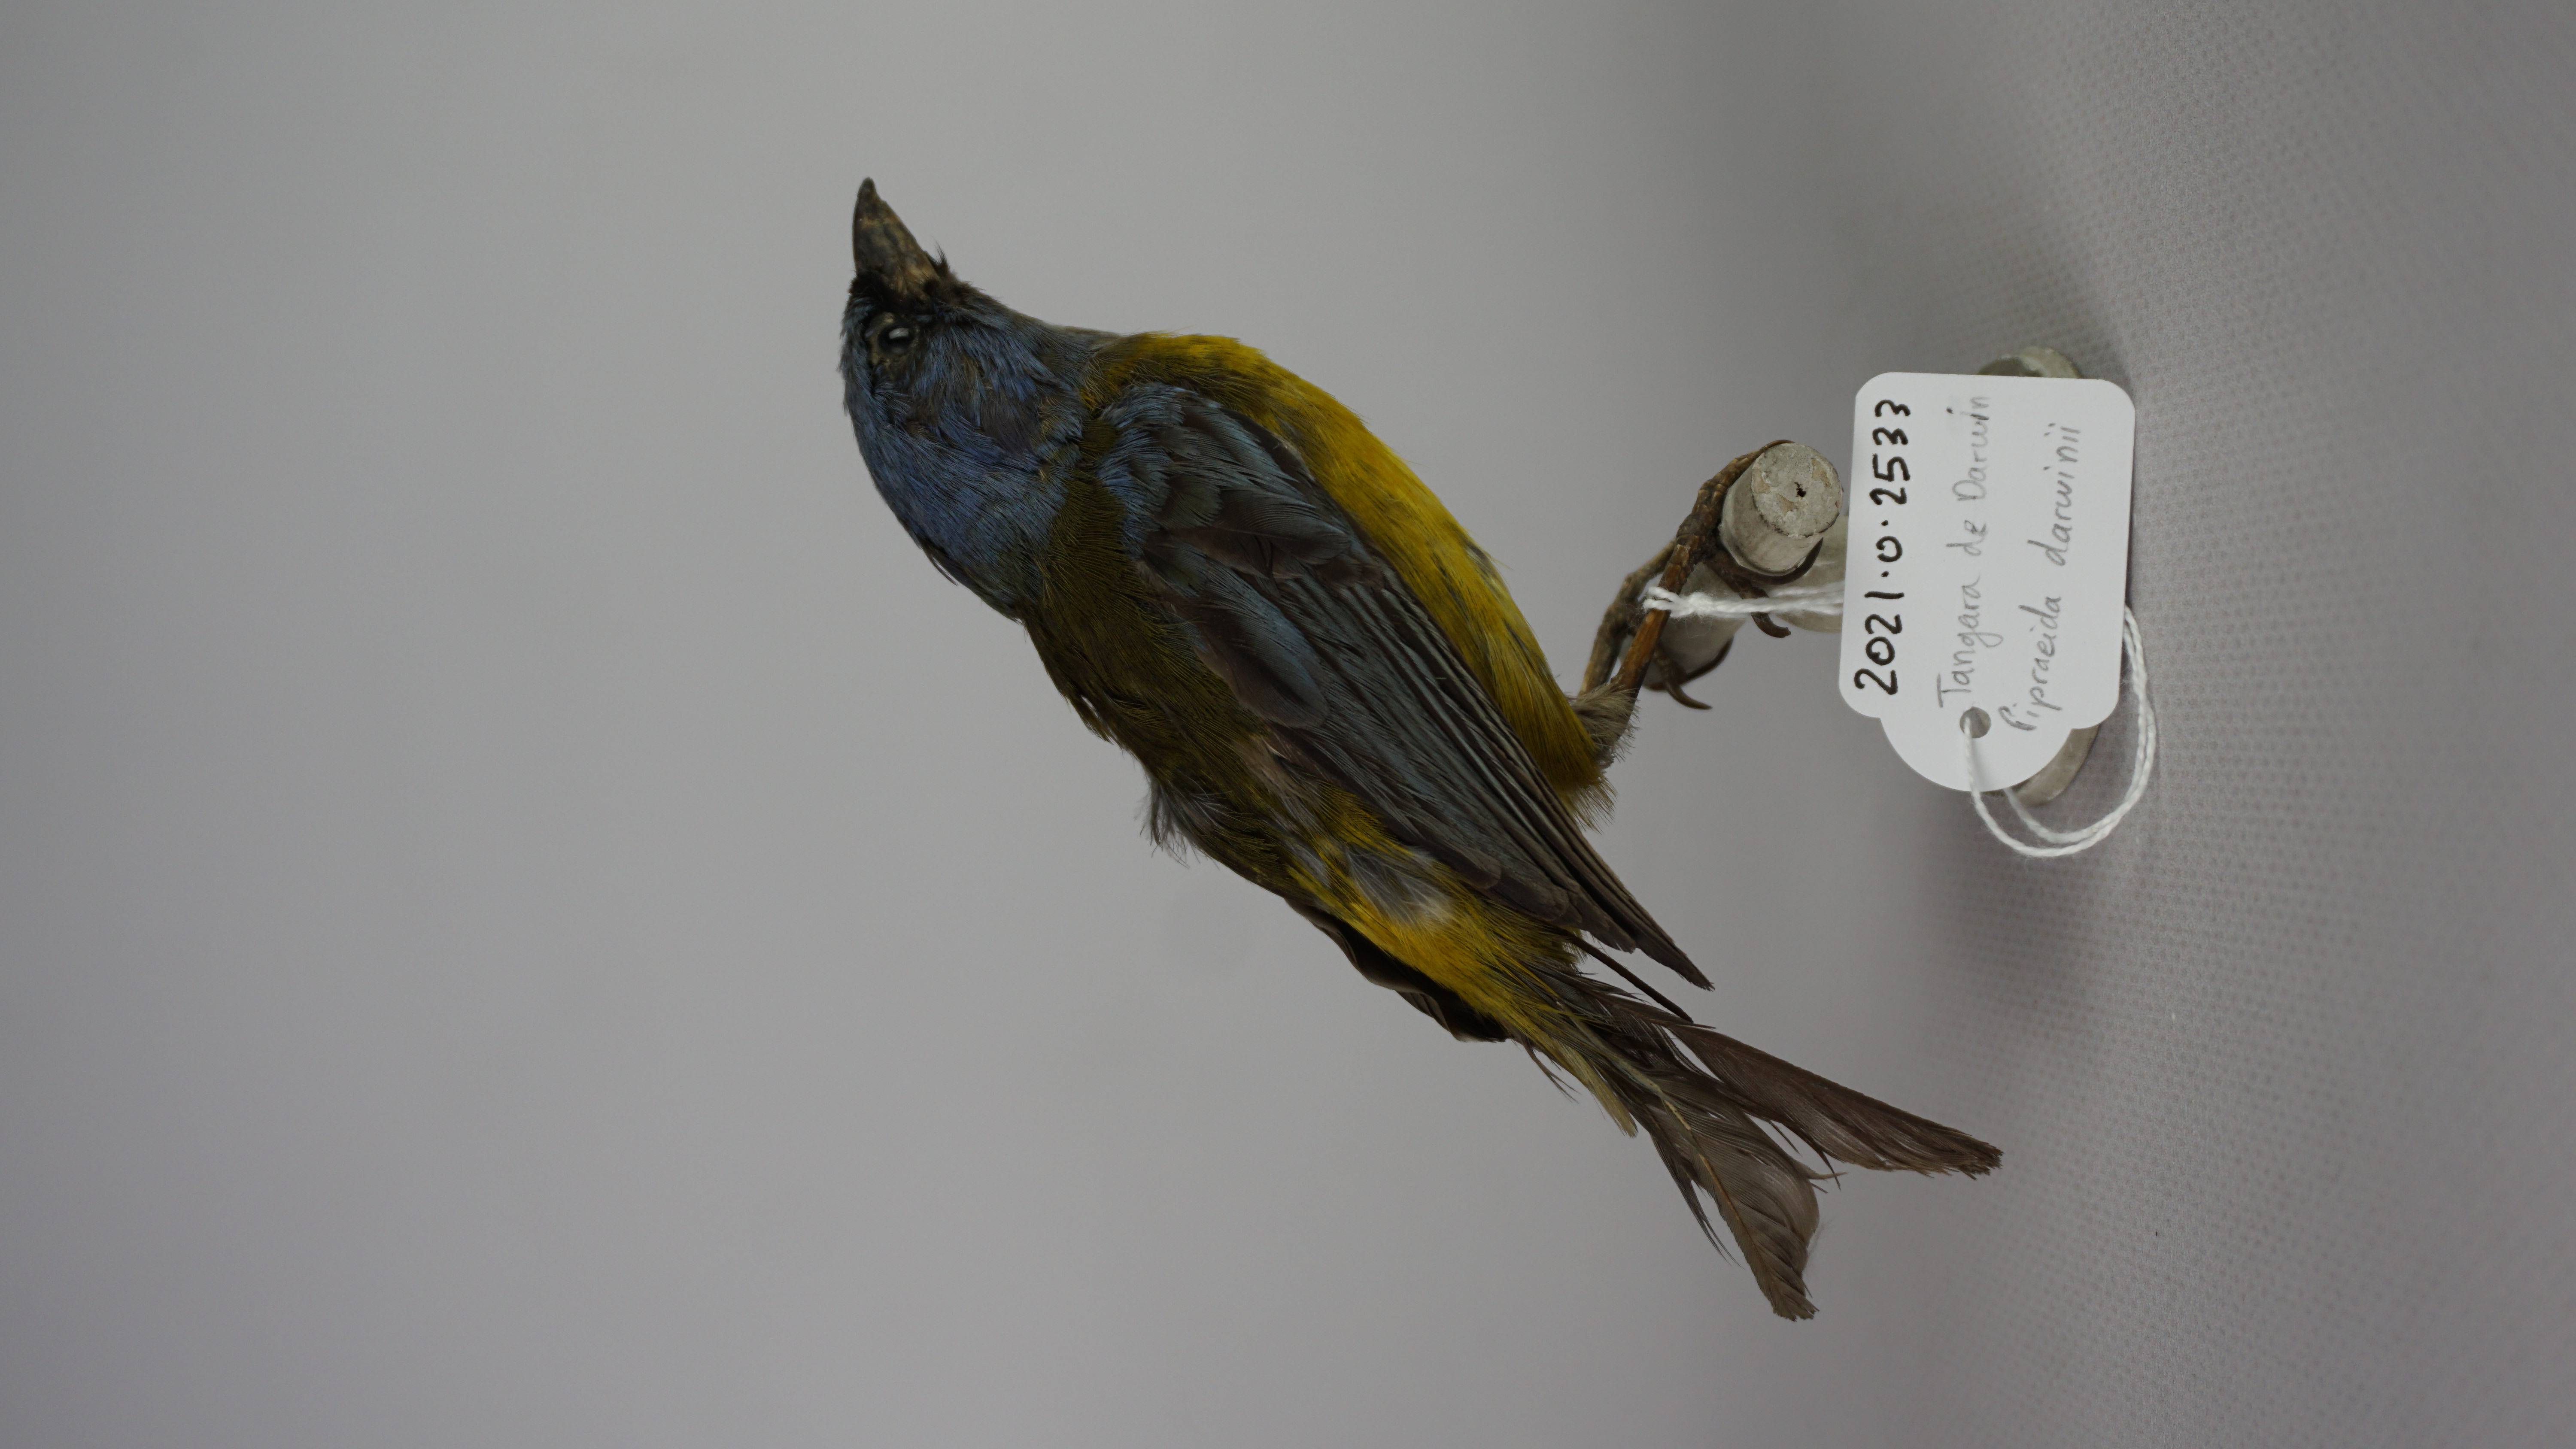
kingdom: Animalia
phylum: Chordata
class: Aves
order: Passeriformes
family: Thraupidae
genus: Diglossa
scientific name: Diglossa humeralis
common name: Black flowerpiercer
